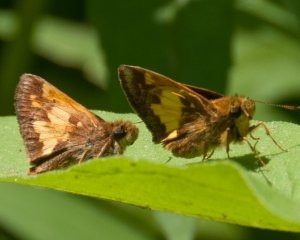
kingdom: Animalia
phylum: Arthropoda
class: Insecta
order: Lepidoptera
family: Hesperiidae
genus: Lon
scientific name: Lon hobomok
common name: Hobomok Skipper
